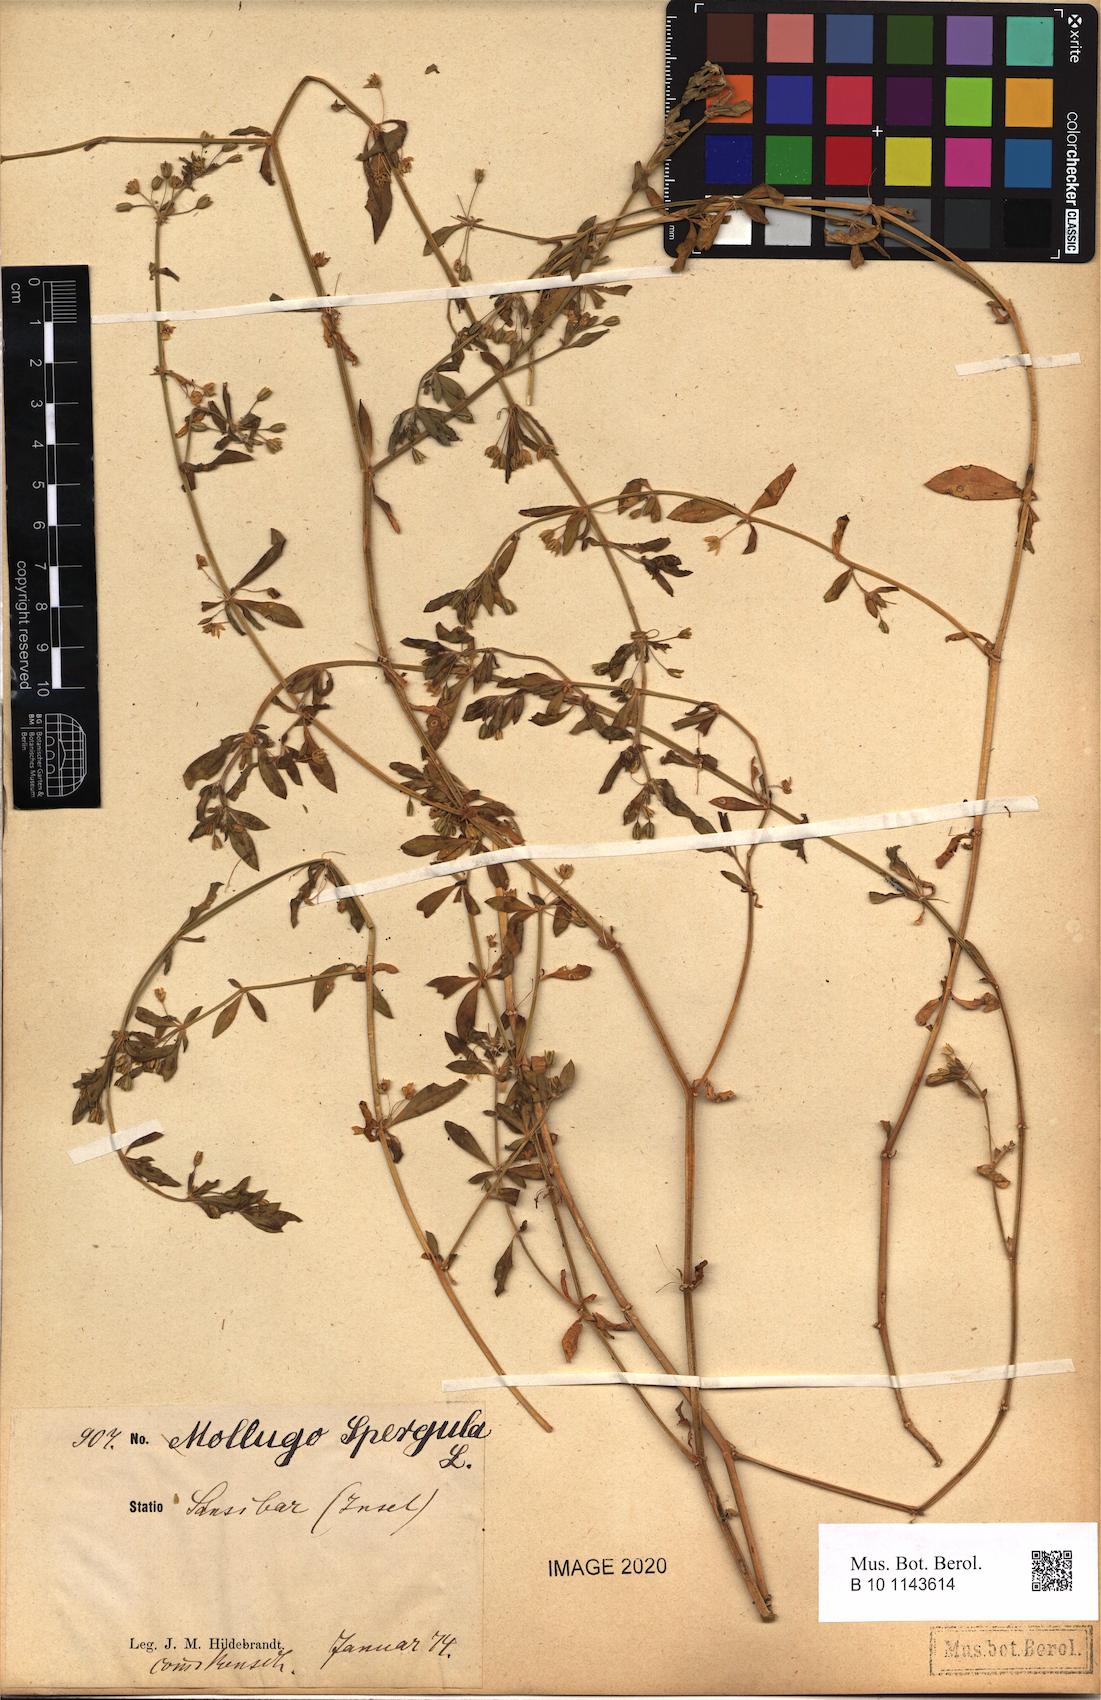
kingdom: Plantae
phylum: Tracheophyta
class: Magnoliopsida
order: Caryophyllales
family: Molluginaceae
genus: Glinus
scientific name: Glinus oppositifolius
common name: Slender carpetweed
